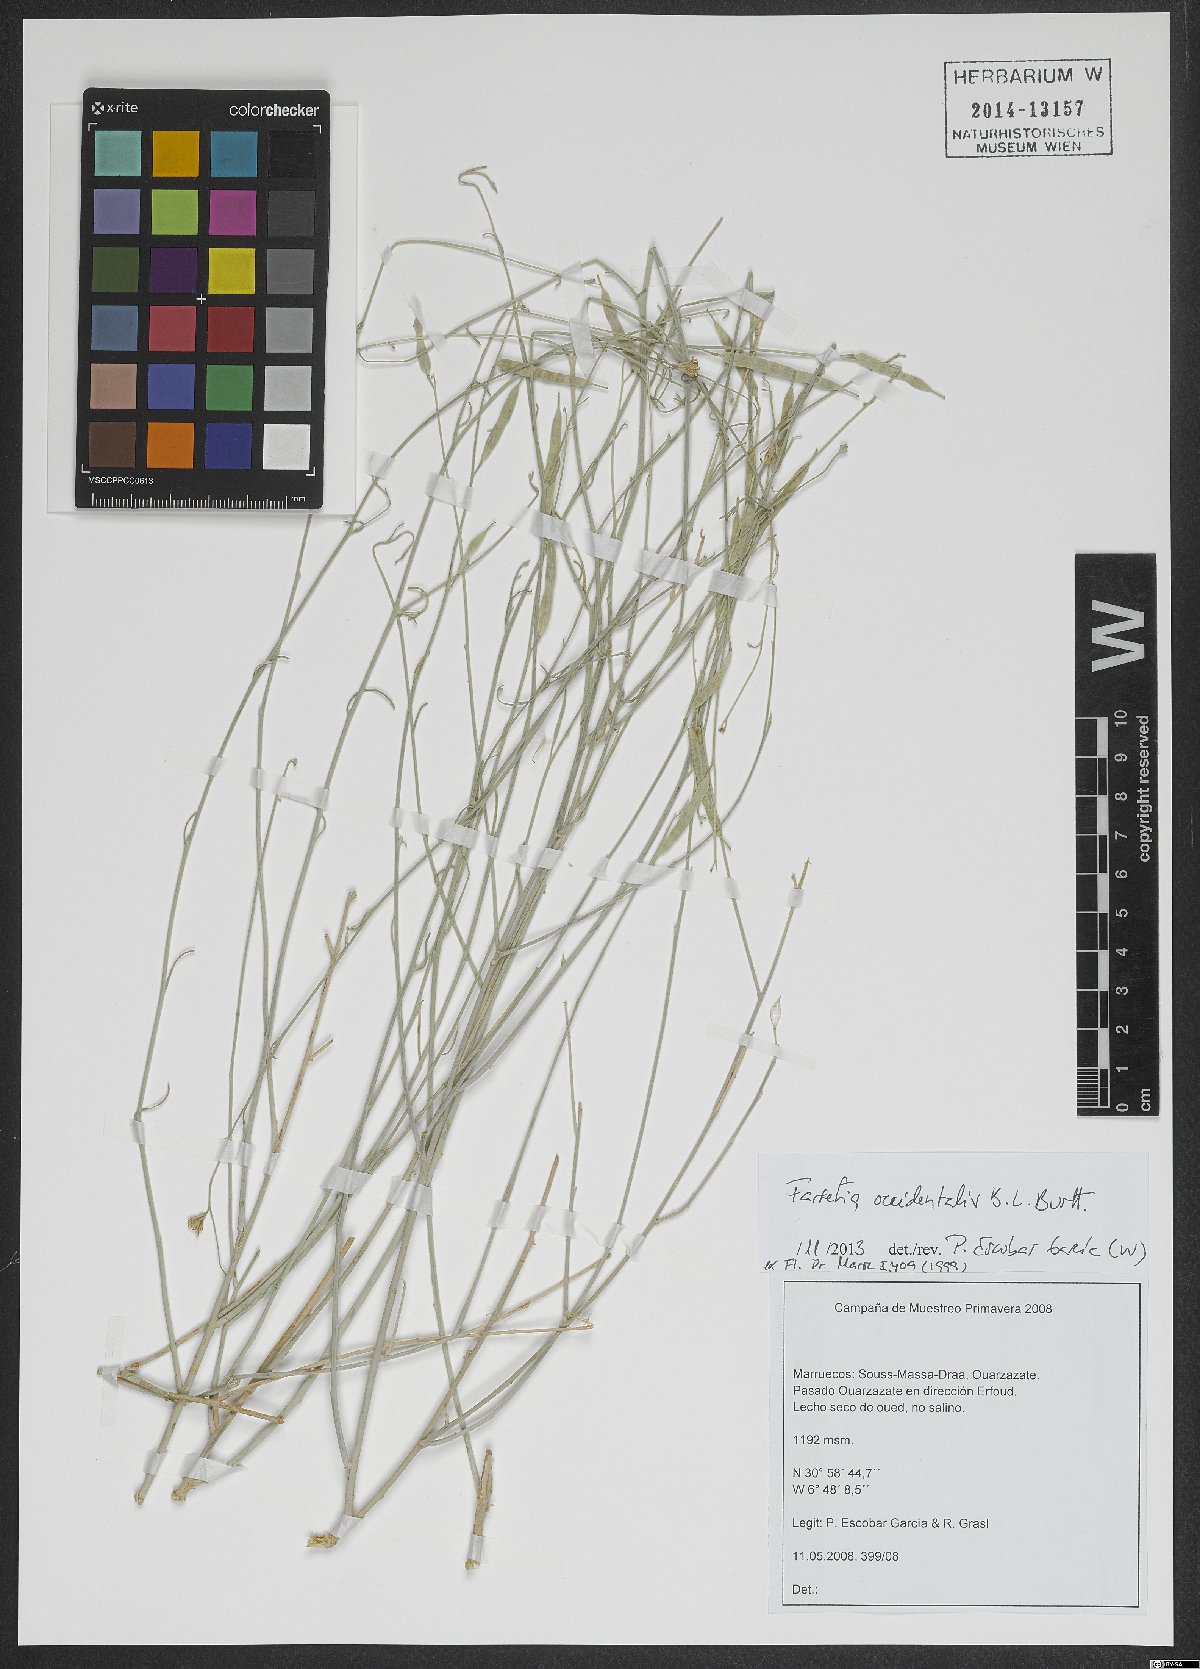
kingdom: Plantae
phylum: Tracheophyta
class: Magnoliopsida
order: Brassicales
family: Brassicaceae
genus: Farsetia
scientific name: Farsetia occidentalis
